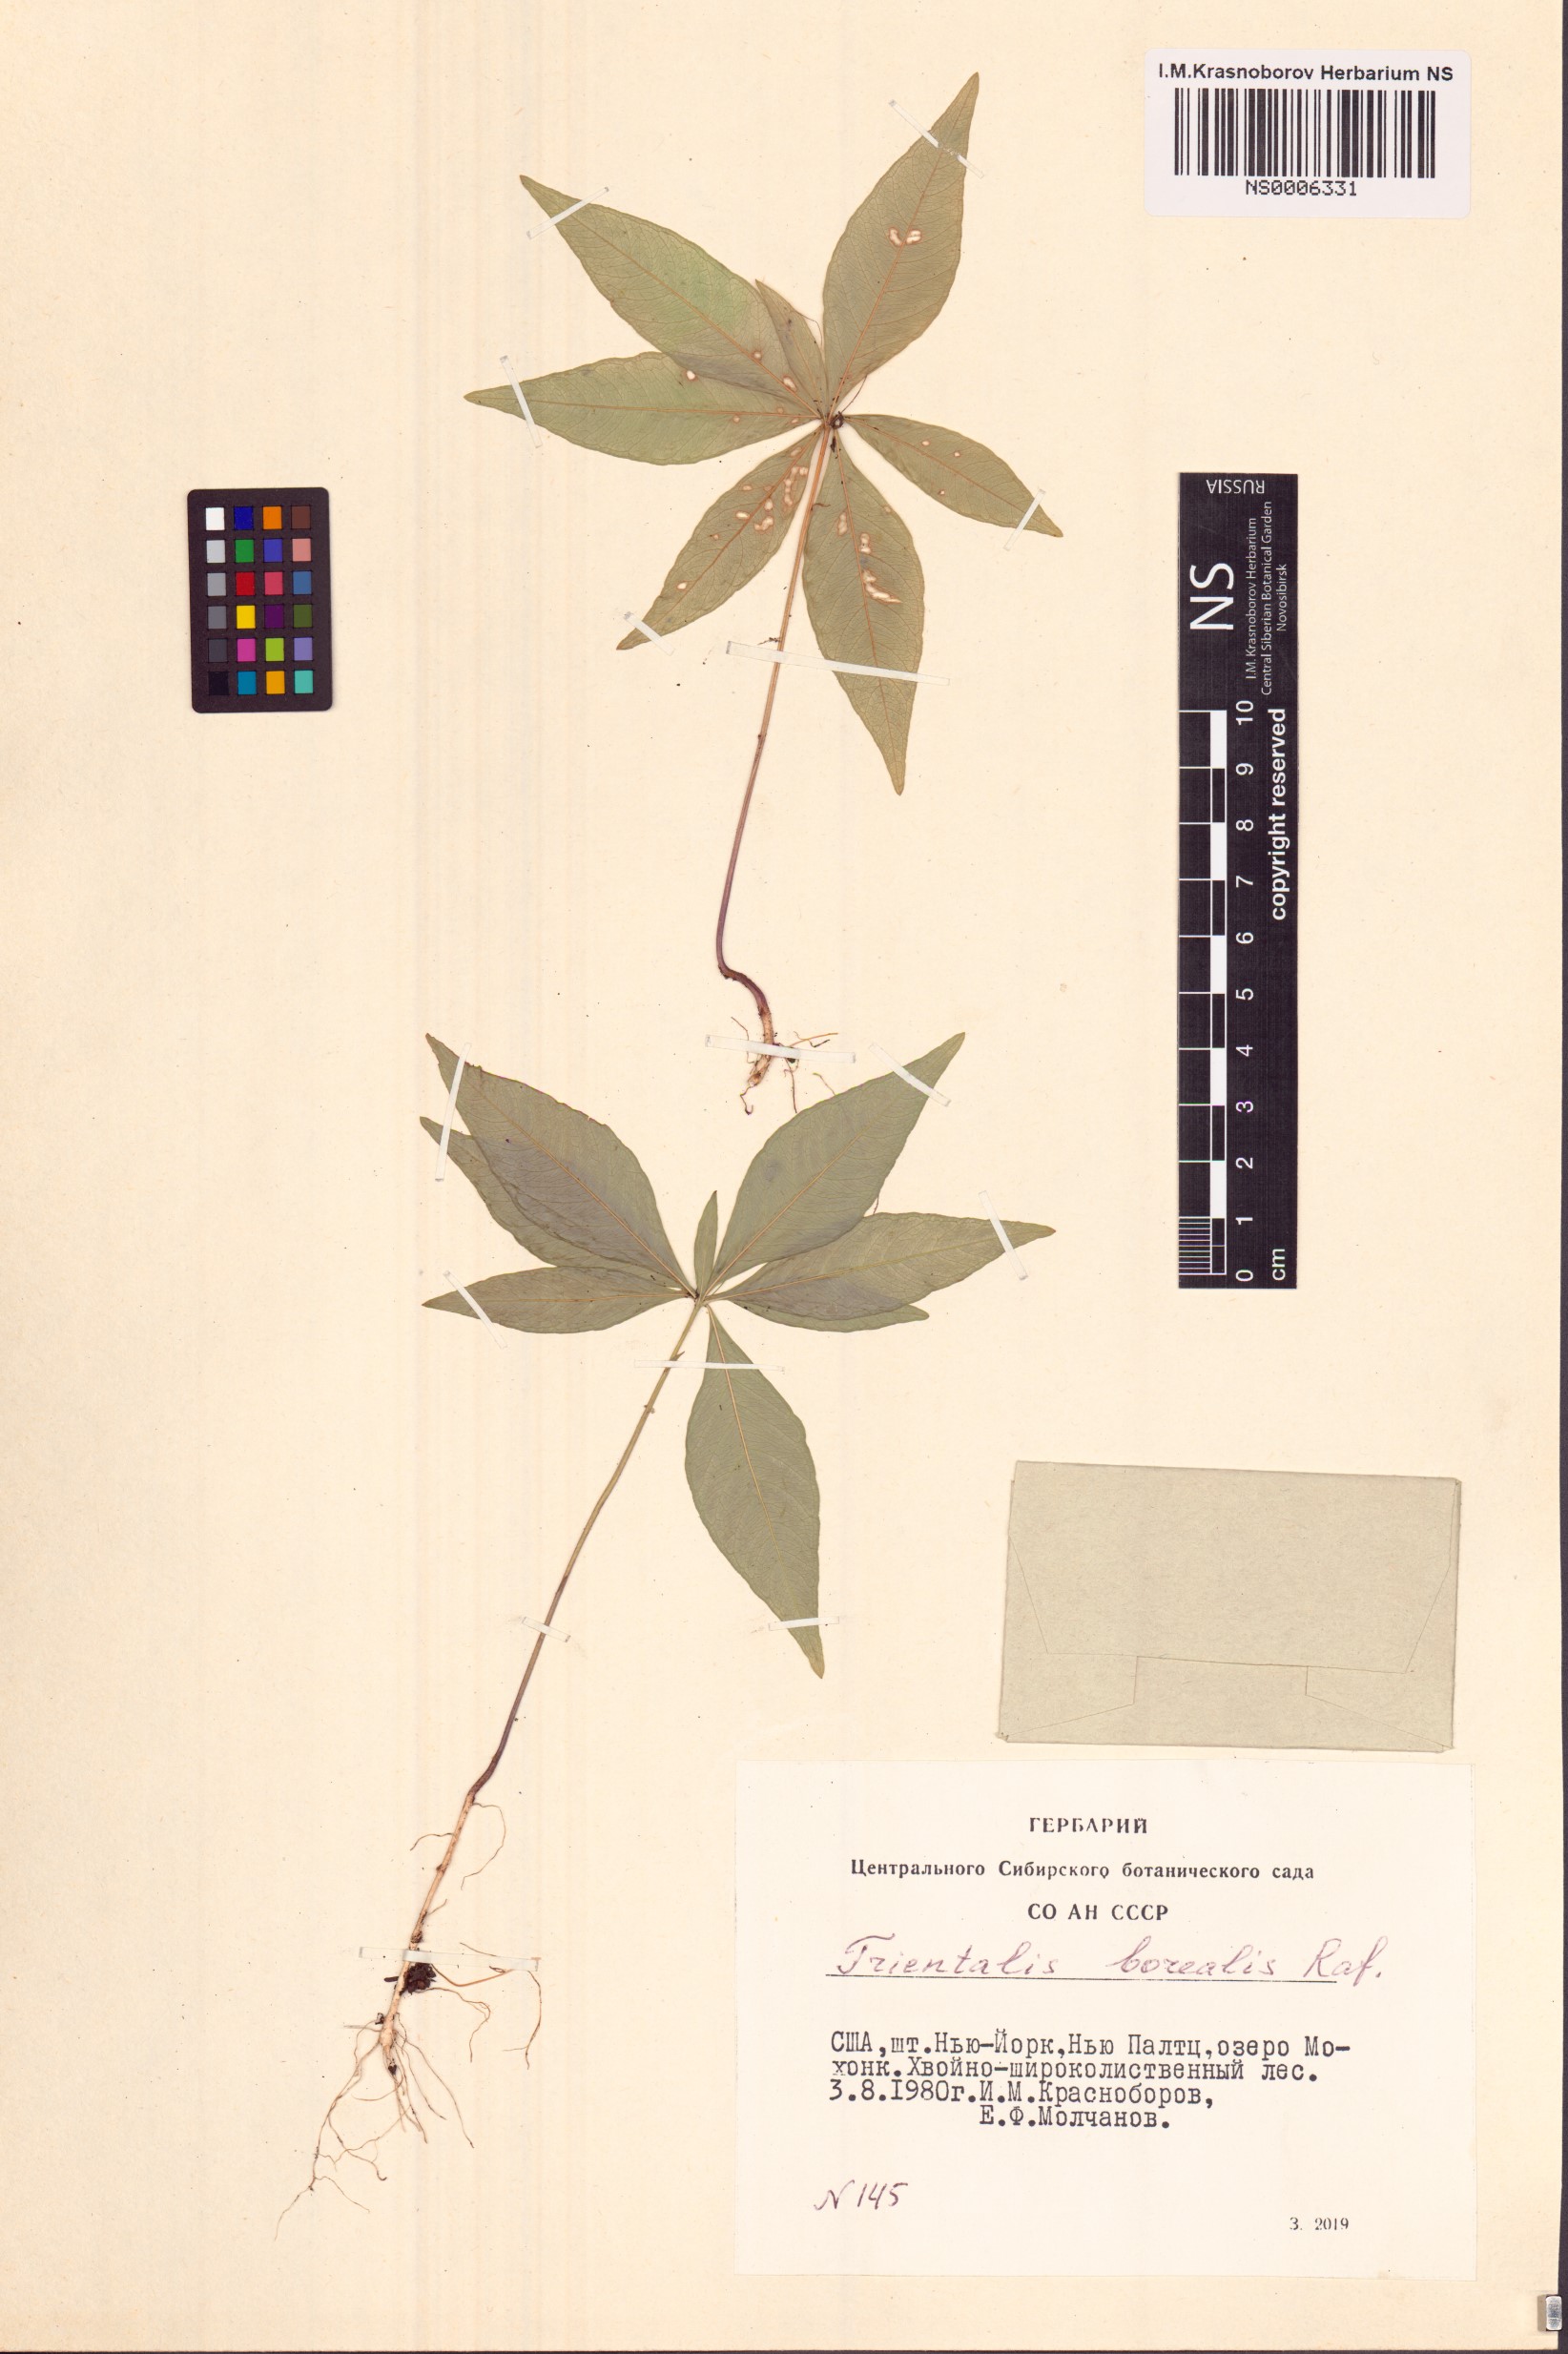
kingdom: Plantae
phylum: Tracheophyta
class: Magnoliopsida
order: Ericales
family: Primulaceae
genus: Lysimachia
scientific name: Lysimachia borealis
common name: American starflower
